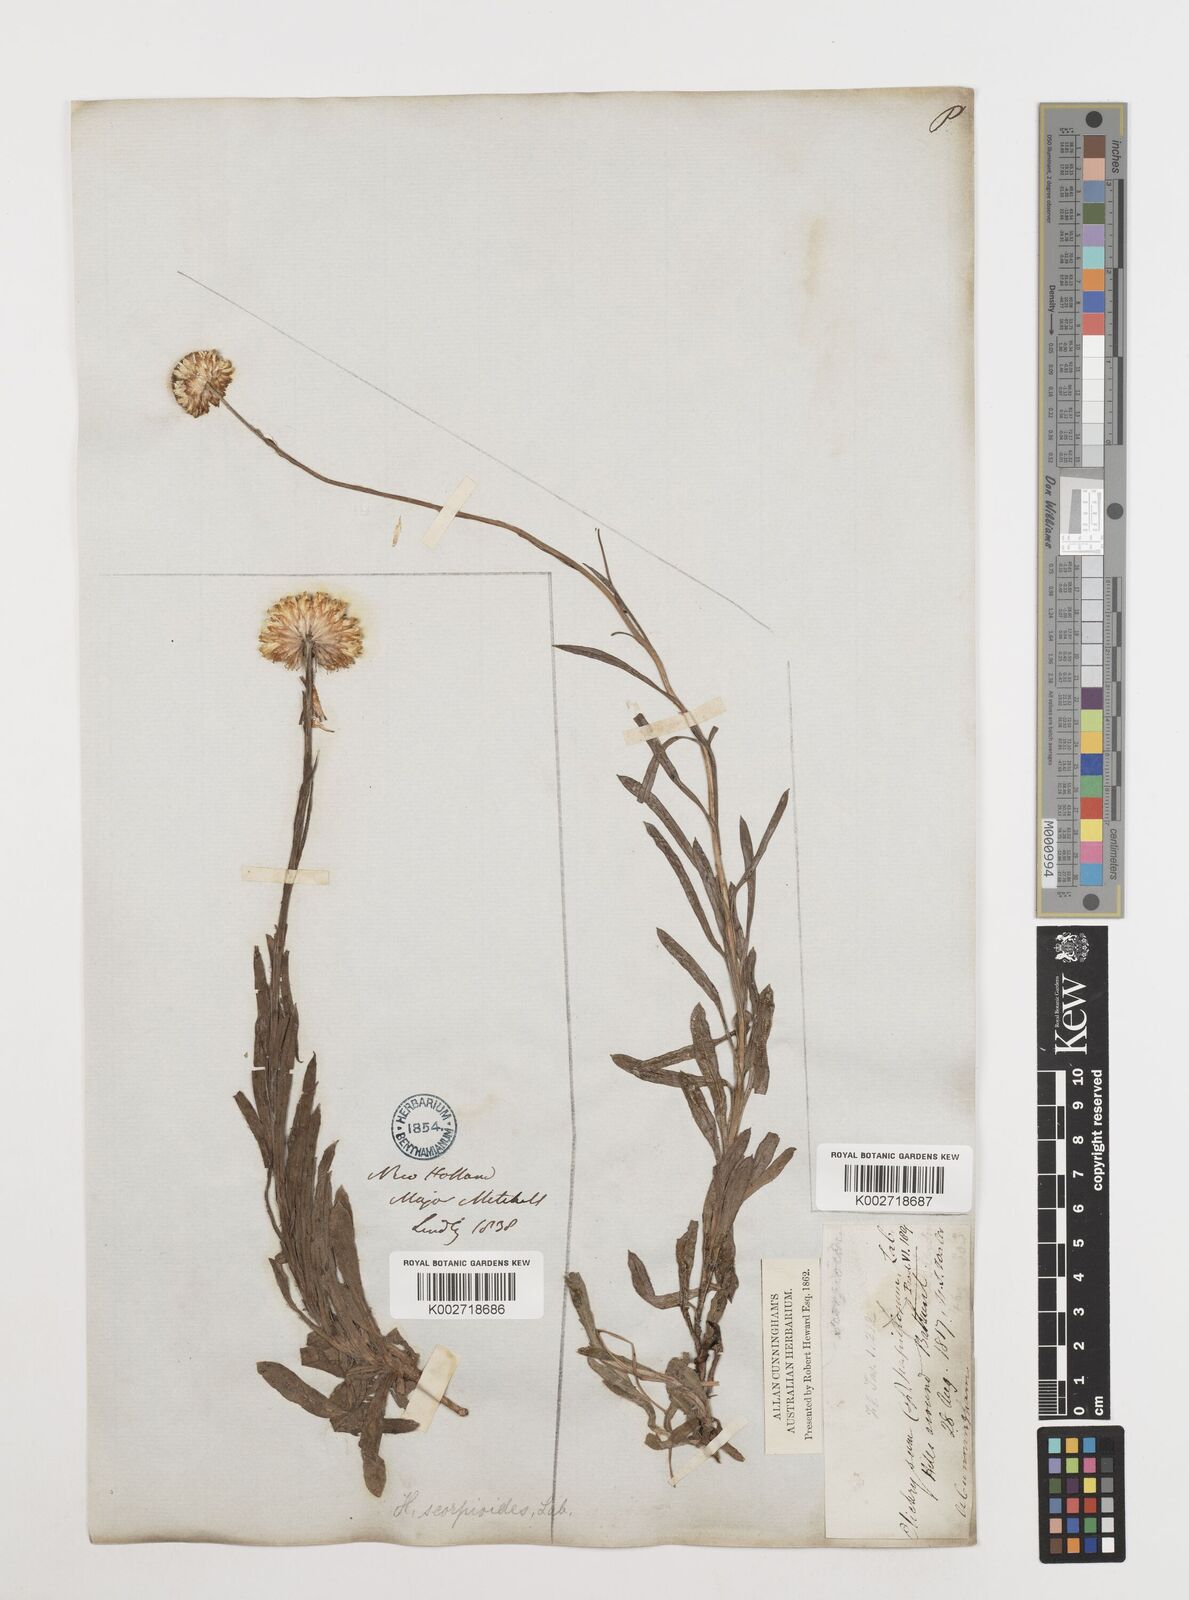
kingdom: Plantae
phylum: Tracheophyta
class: Magnoliopsida
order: Asterales
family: Asteraceae
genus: Coronidium
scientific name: Coronidium scorpioides
